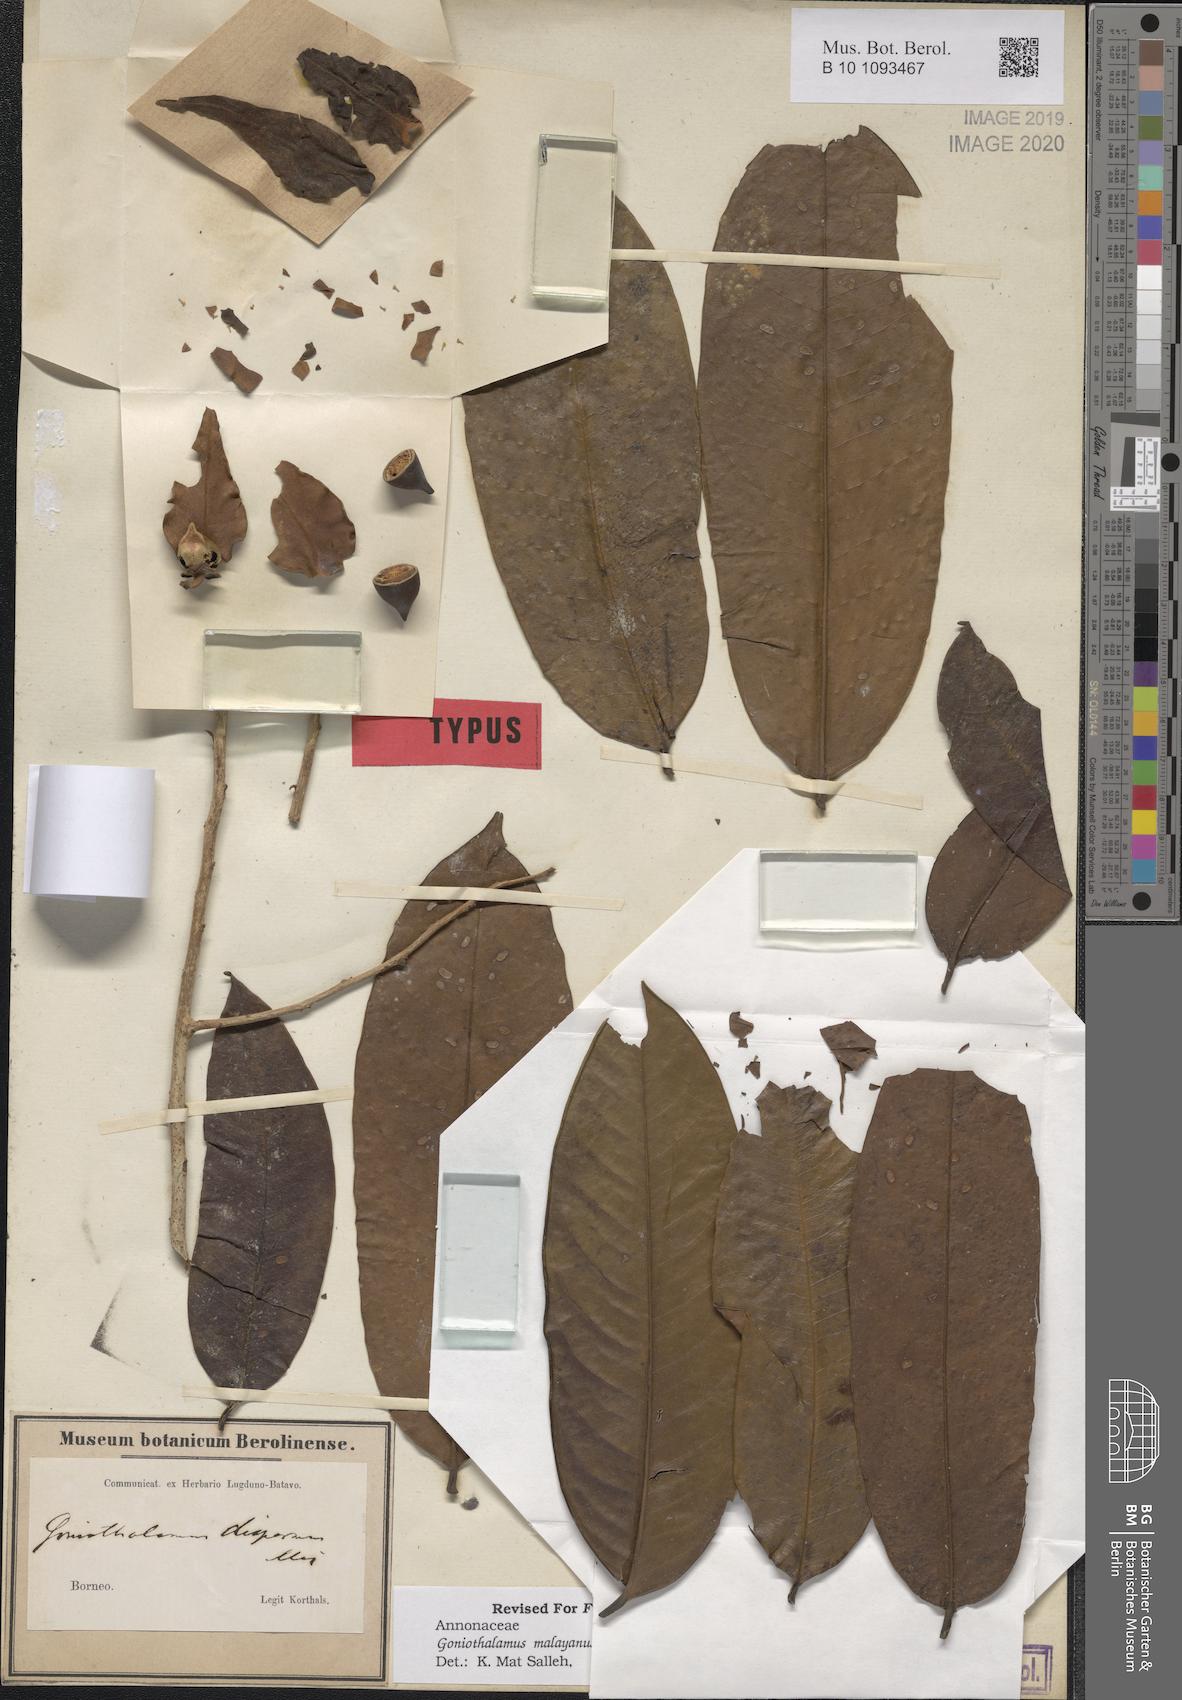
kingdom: Plantae
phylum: Tracheophyta
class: Magnoliopsida
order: Magnoliales
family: Annonaceae
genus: Goniothalamus
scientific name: Goniothalamus malayanus
